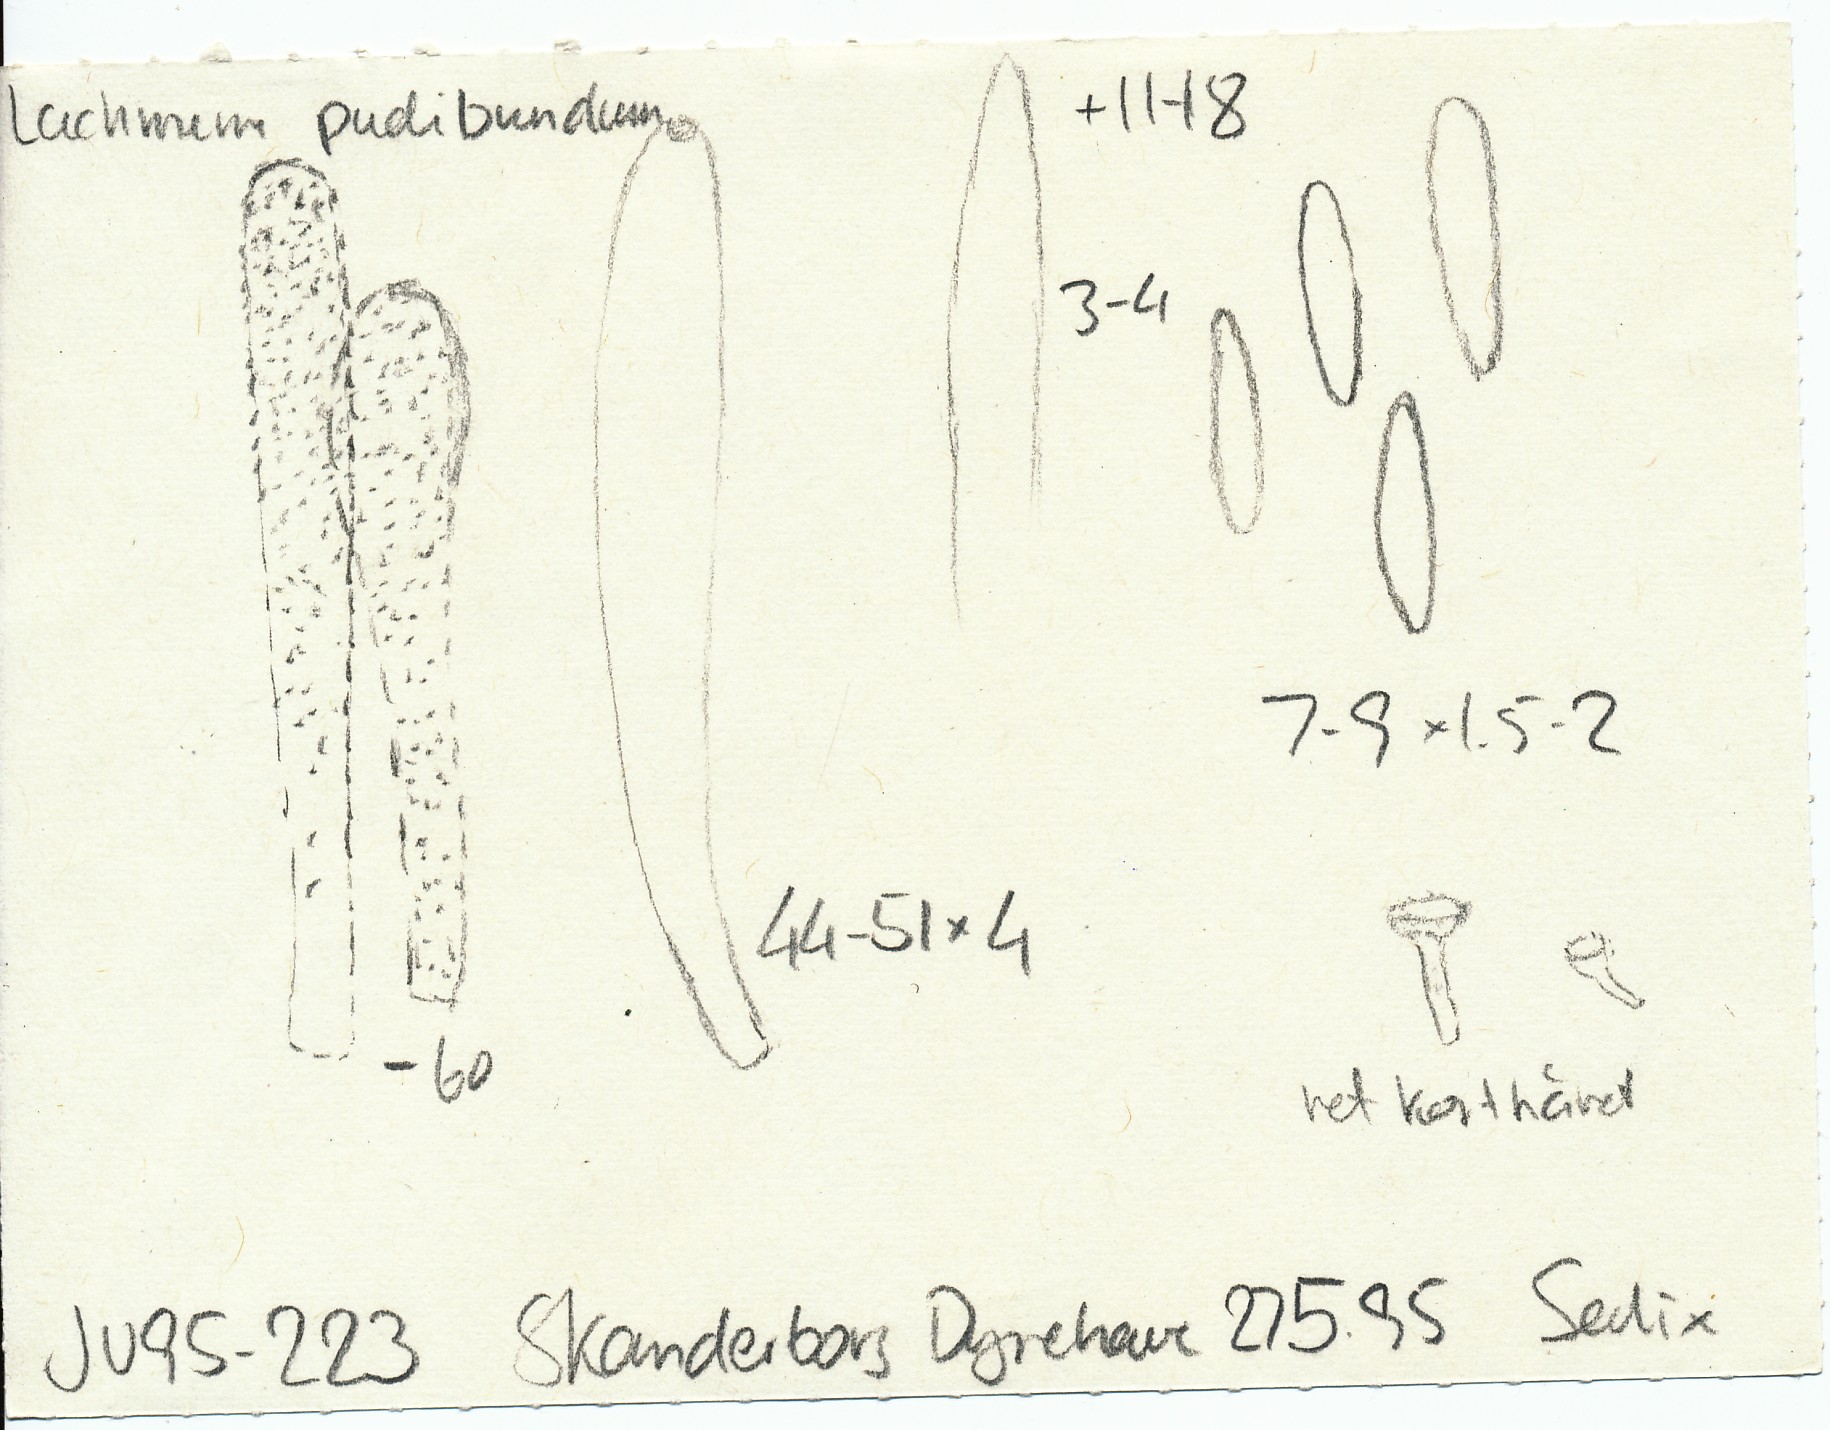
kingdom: Fungi
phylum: Ascomycota
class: Leotiomycetes
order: Helotiales
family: Lachnaceae
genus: Lachnum
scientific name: Lachnum pudibundum
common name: brude-frynseskive
